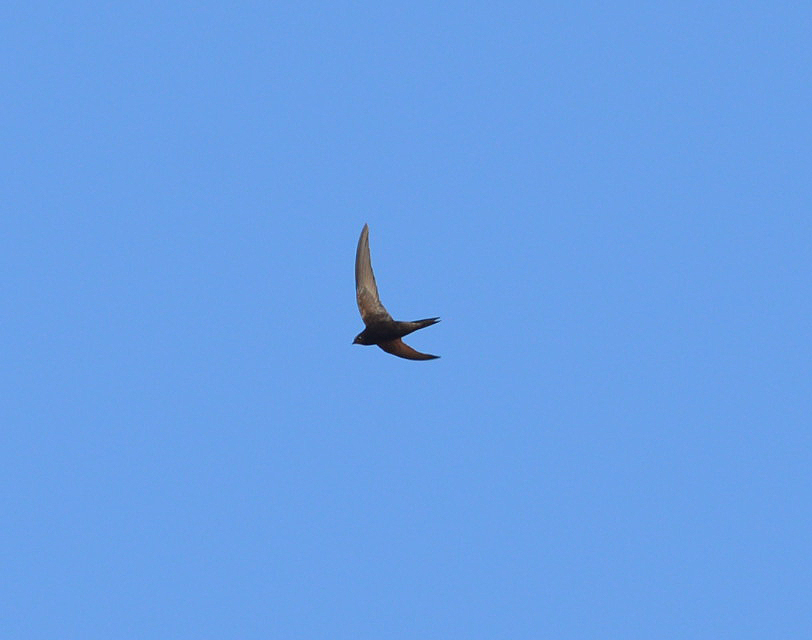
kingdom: Animalia
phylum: Chordata
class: Aves
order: Apodiformes
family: Apodidae
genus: Apus
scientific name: Apus apus
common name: Common swift
